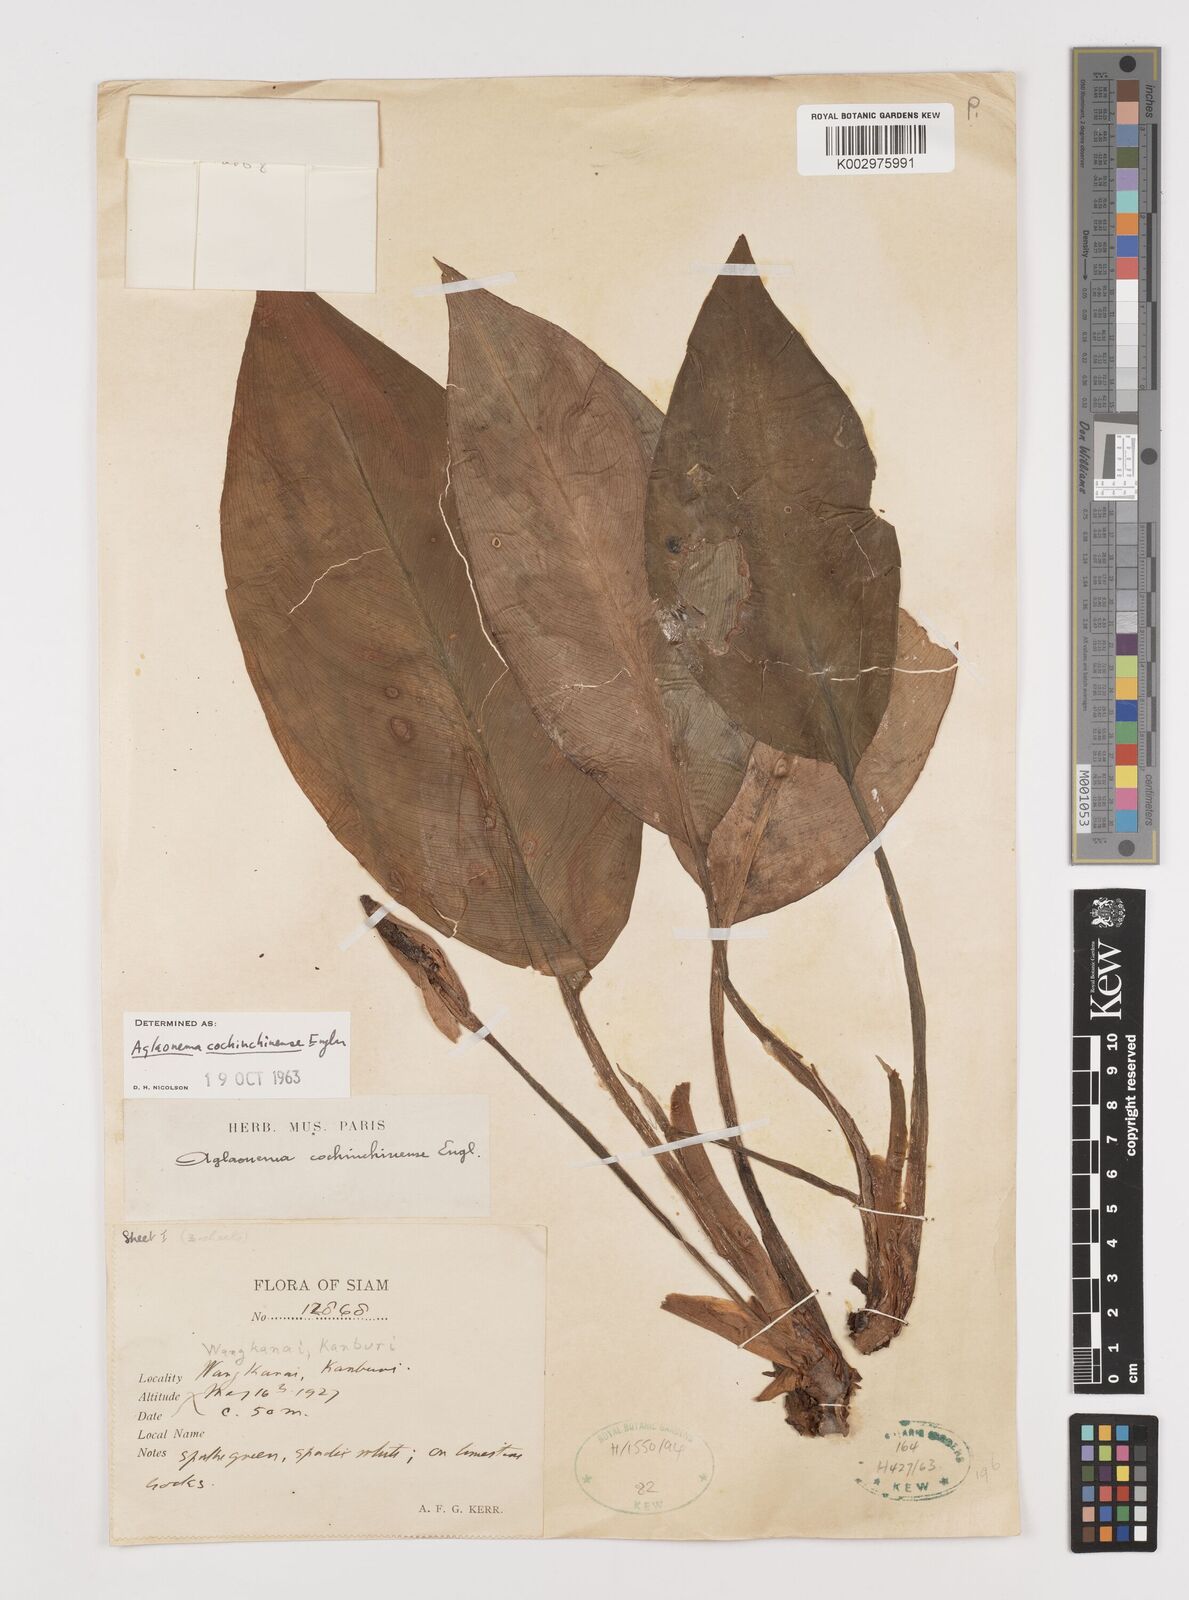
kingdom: Plantae
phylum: Tracheophyta
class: Liliopsida
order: Alismatales
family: Araceae
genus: Aglaonema
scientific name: Aglaonema cochinchinense
